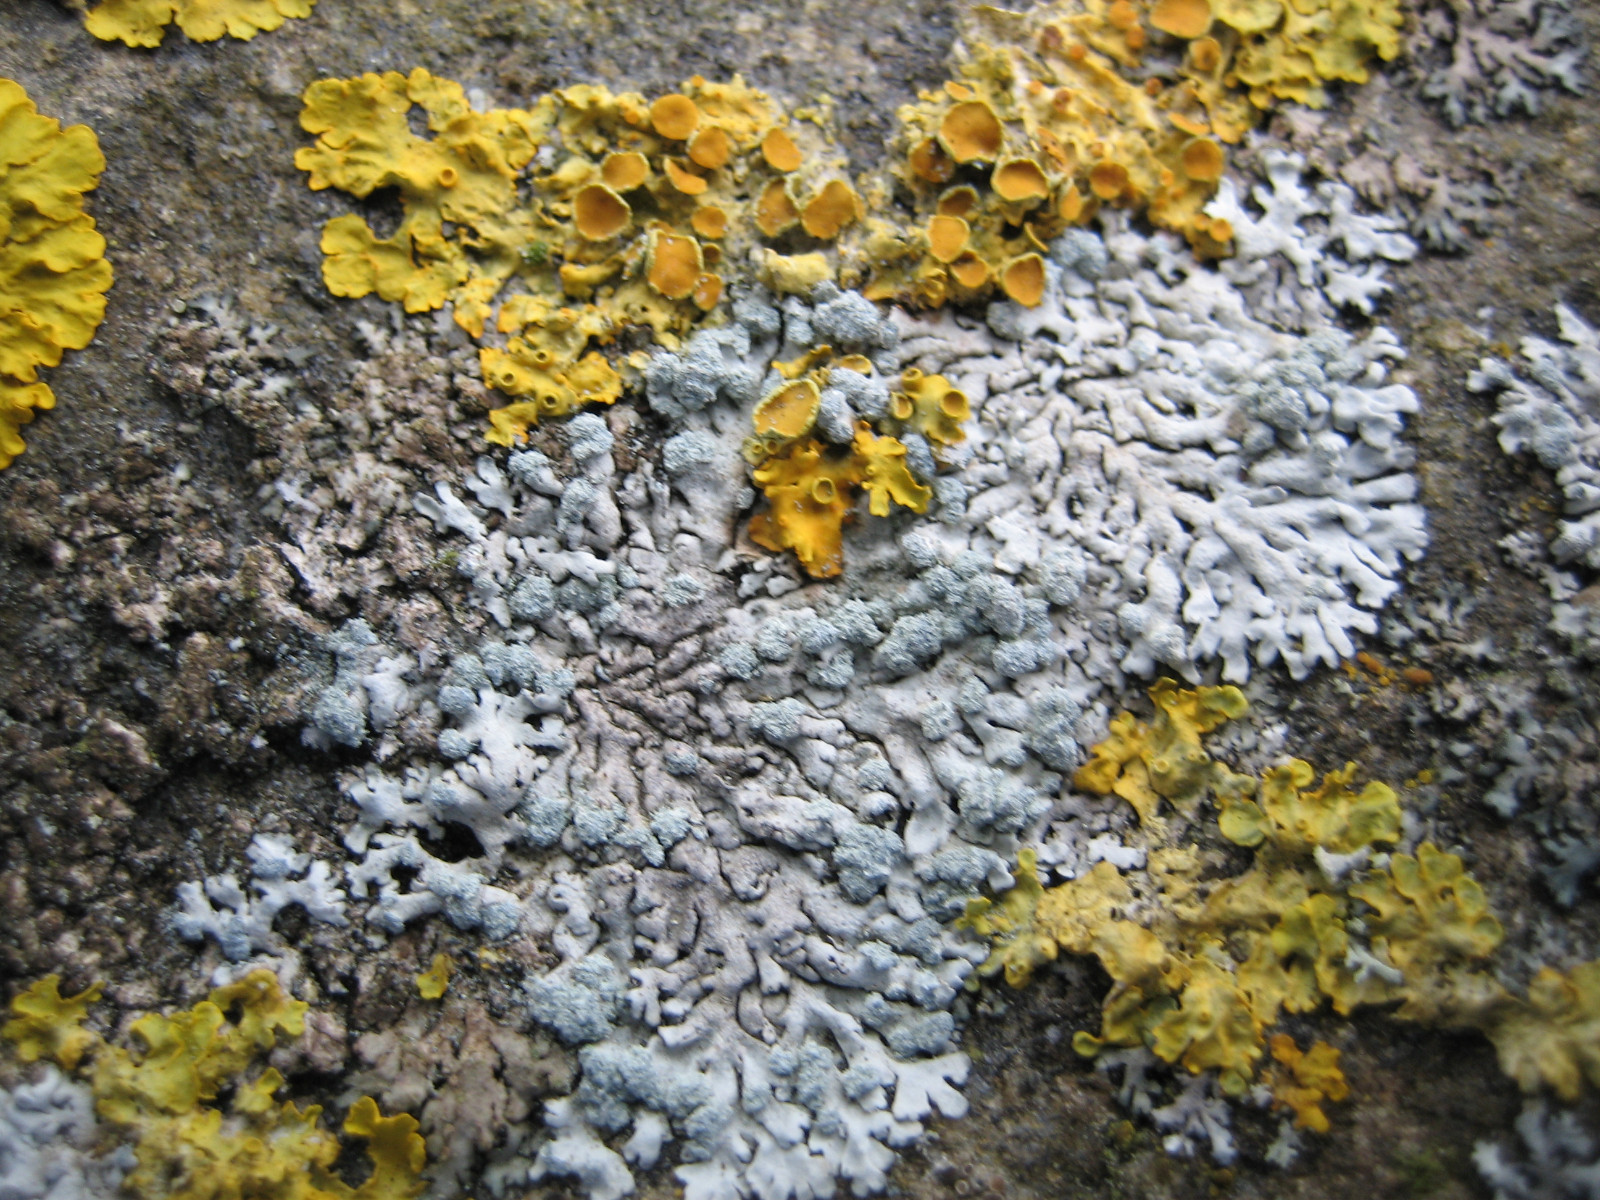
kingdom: Fungi
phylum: Ascomycota
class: Lecanoromycetes
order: Caliciales
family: Physciaceae
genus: Physcia
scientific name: Physcia caesia
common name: blågrå rosetlav
